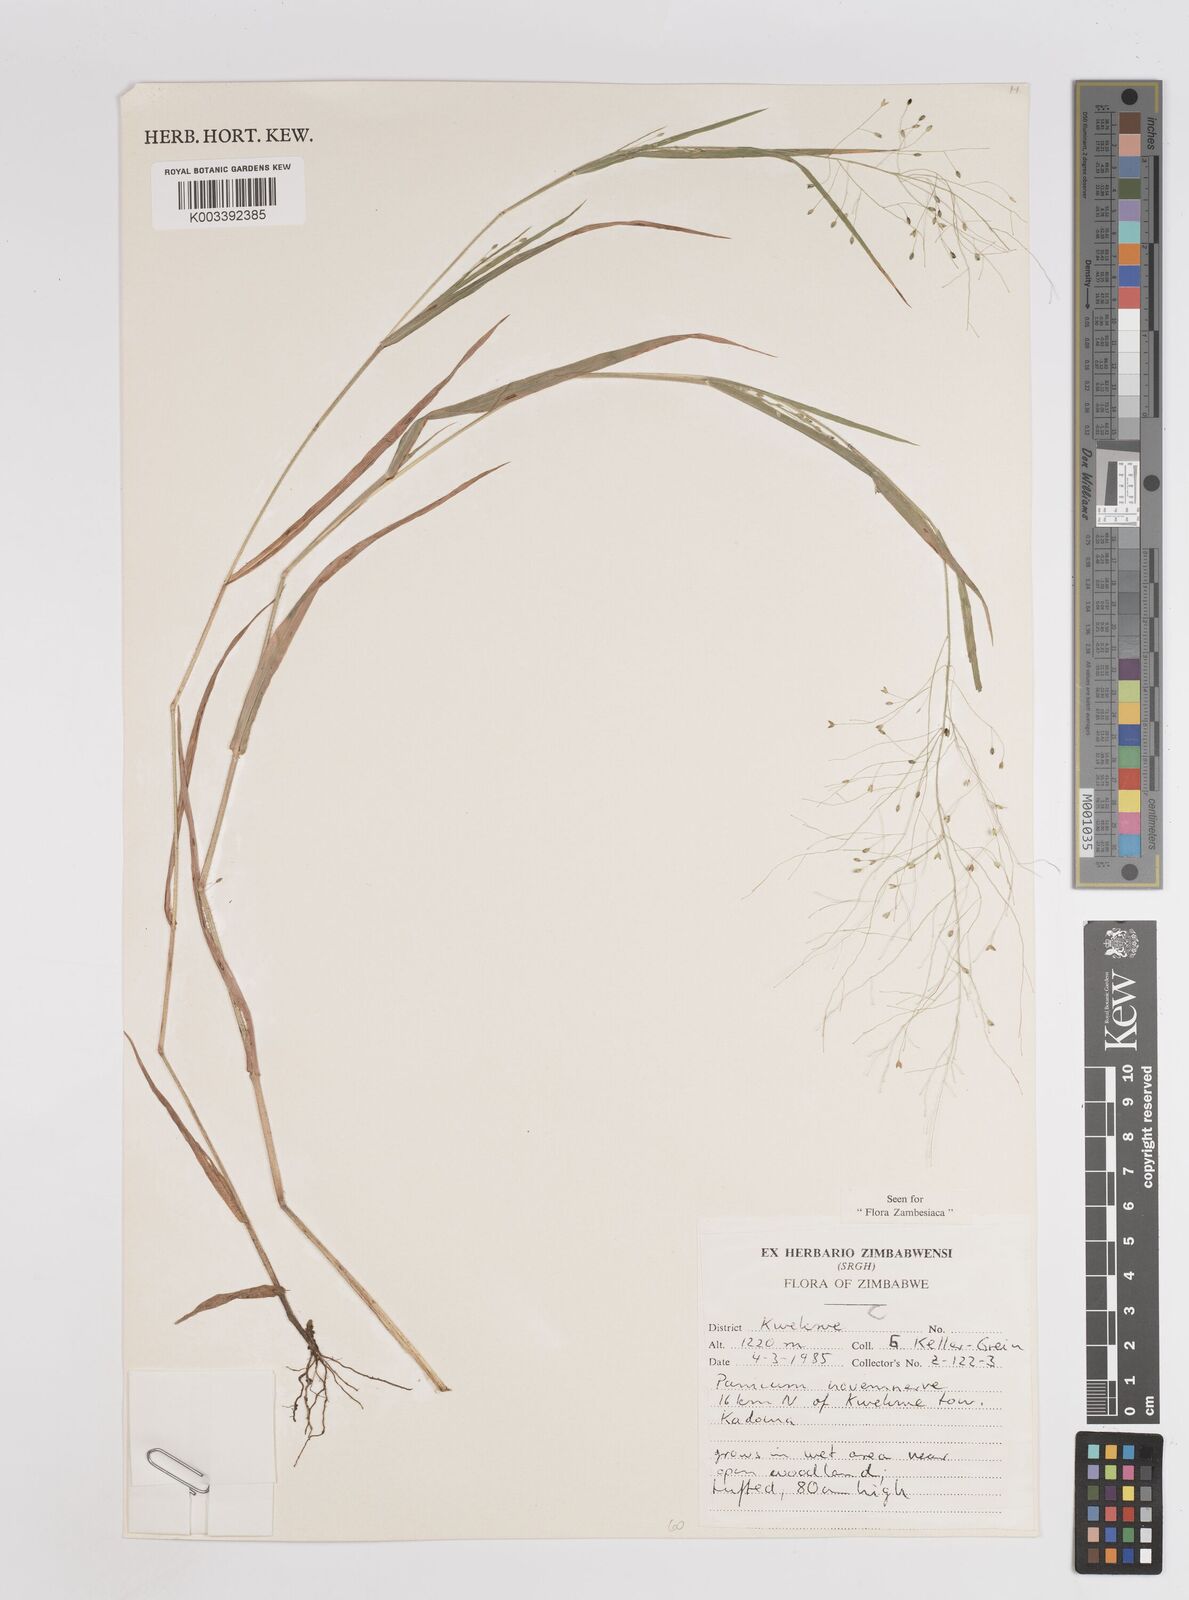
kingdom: Plantae
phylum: Tracheophyta
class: Liliopsida
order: Poales
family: Poaceae
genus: Panicum
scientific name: Panicum novemnerve
